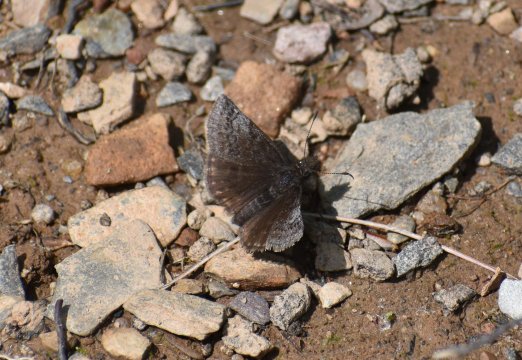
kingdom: Animalia
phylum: Arthropoda
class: Insecta
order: Lepidoptera
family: Hesperiidae
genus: Erynnis
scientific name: Erynnis icelus
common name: Dreamy Duskywing
